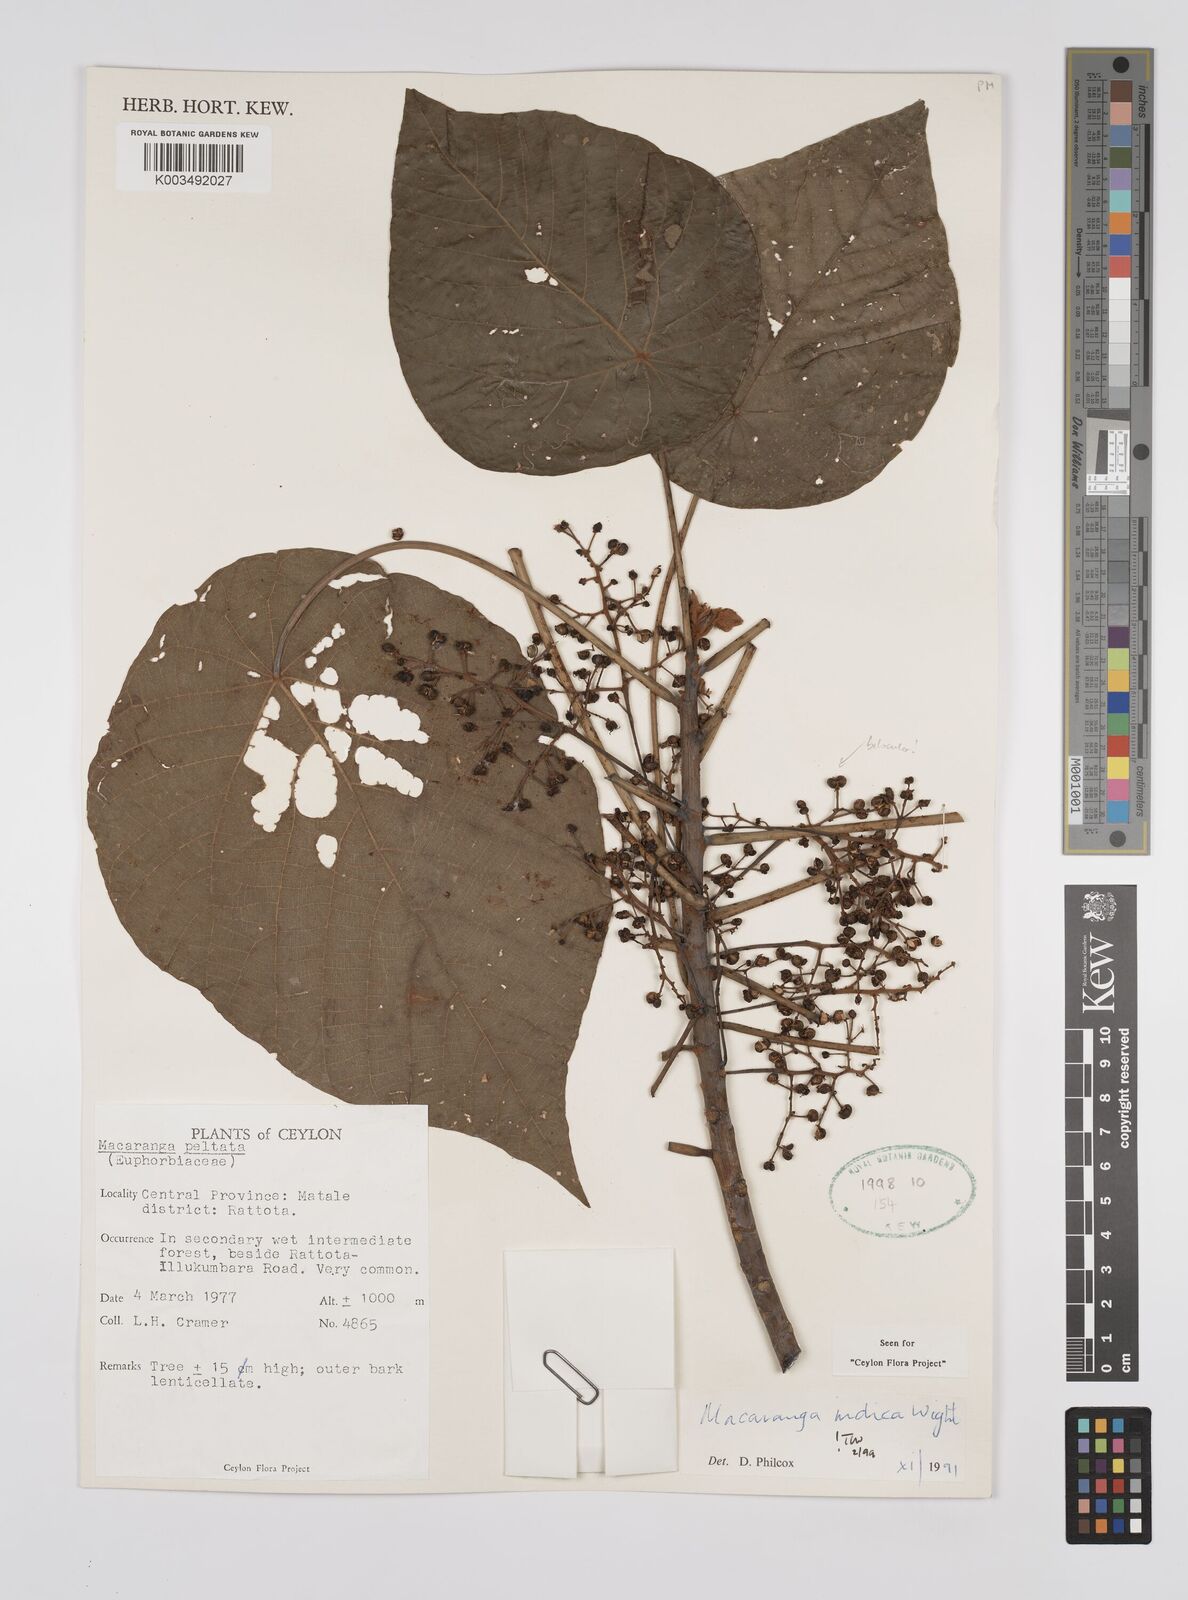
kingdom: Plantae
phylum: Tracheophyta
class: Magnoliopsida
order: Malpighiales
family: Euphorbiaceae
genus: Macaranga
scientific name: Macaranga indica
